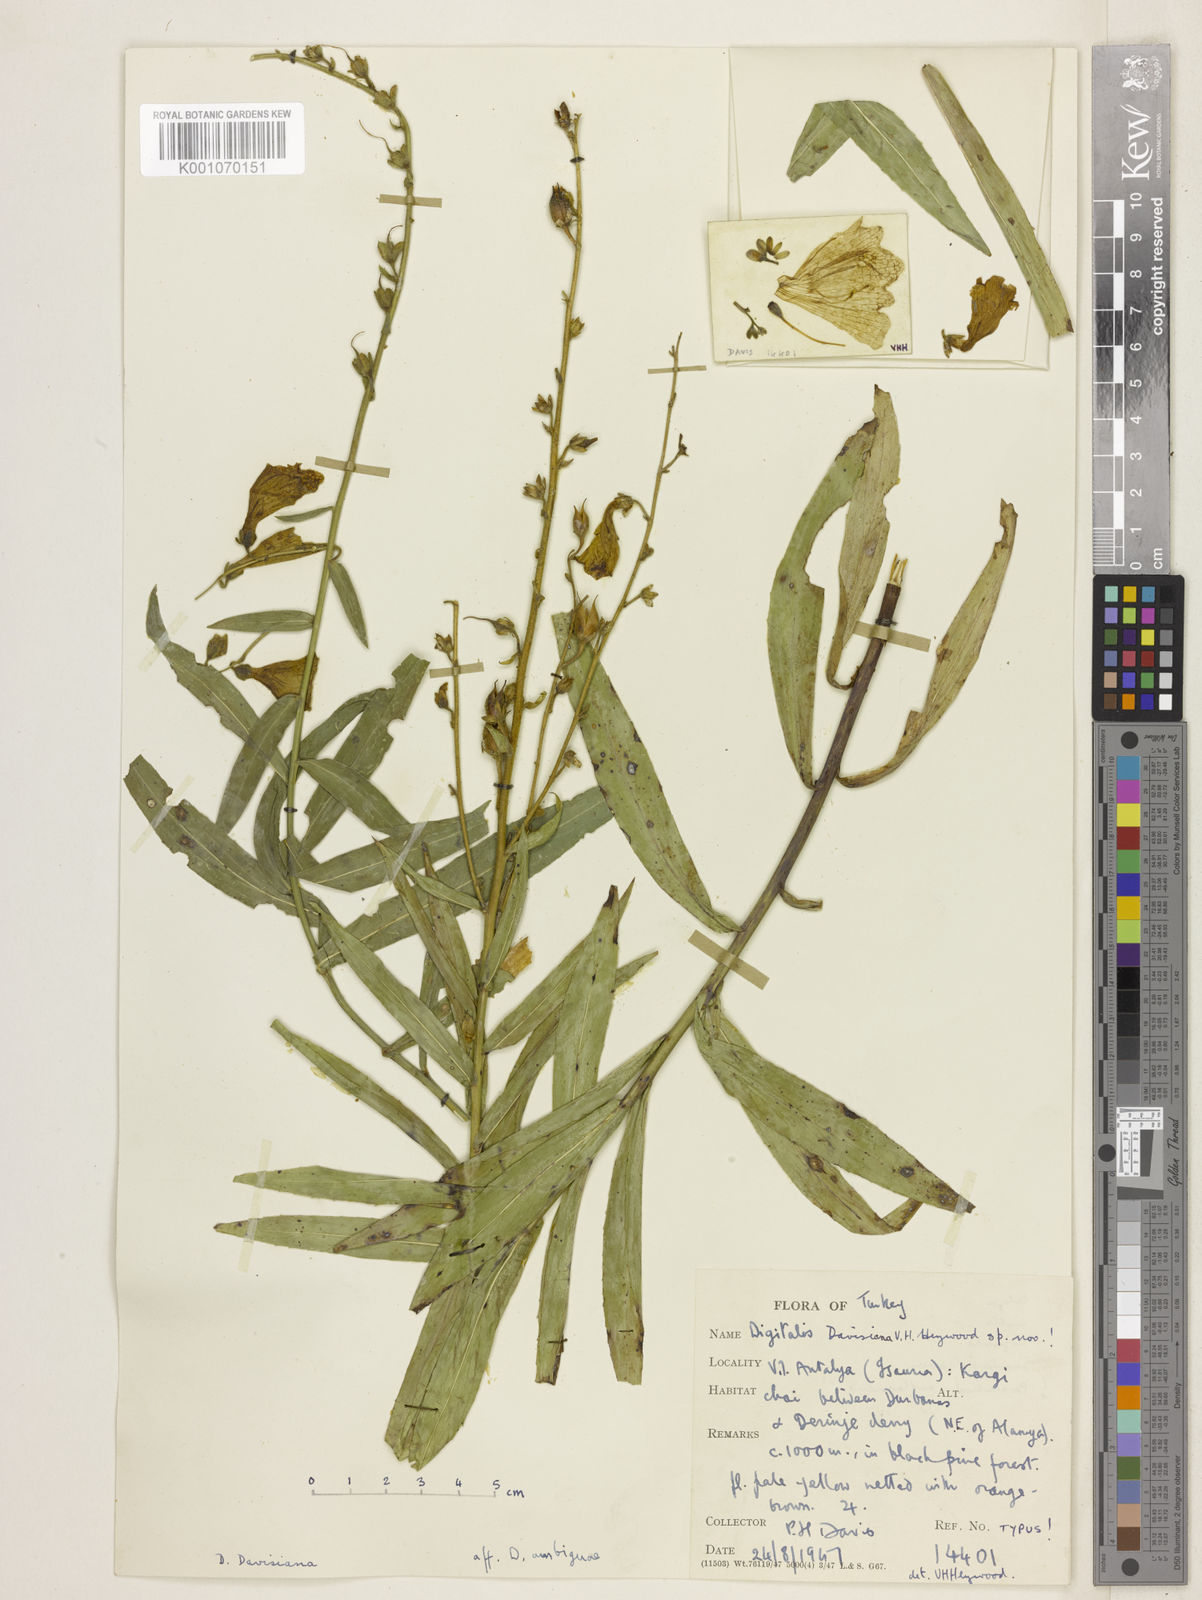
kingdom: Plantae
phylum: Tracheophyta
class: Magnoliopsida
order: Lamiales
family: Plantaginaceae
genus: Digitalis
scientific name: Digitalis davisiana
